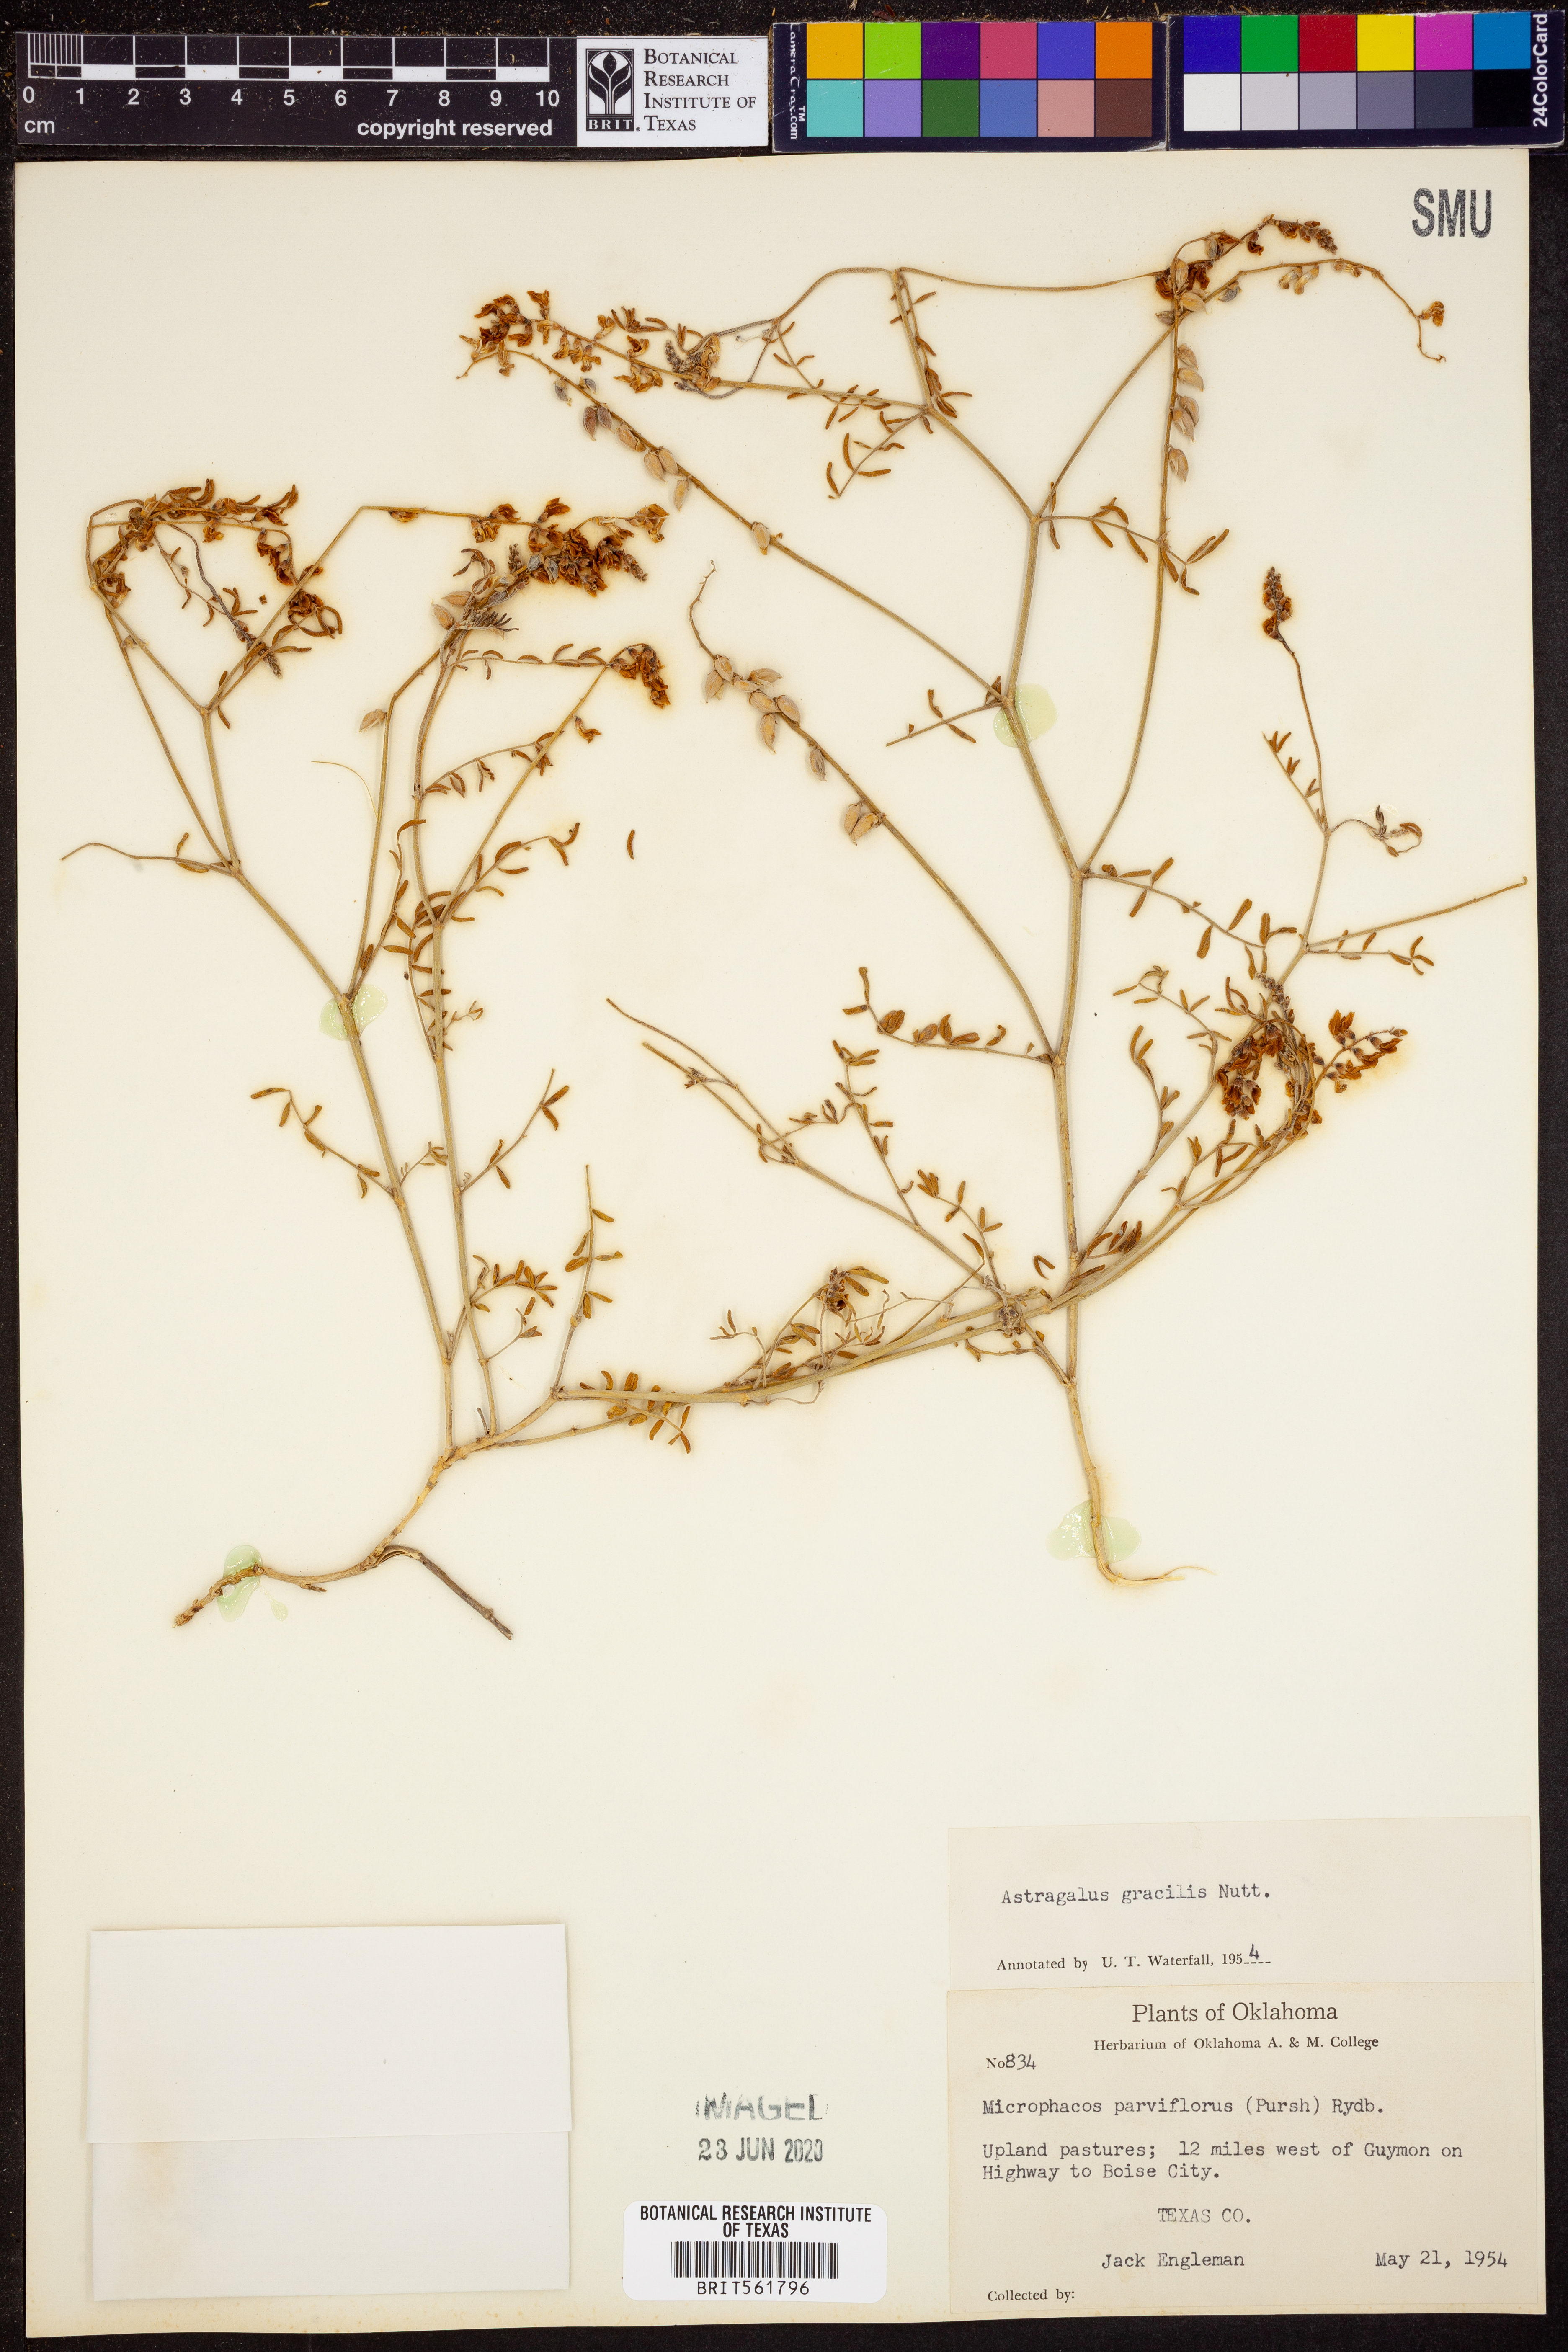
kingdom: Plantae
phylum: Tracheophyta
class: Magnoliopsida
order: Fabales
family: Fabaceae
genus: Astragalus
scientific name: Astragalus gracilis
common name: Slender milk-vetch
